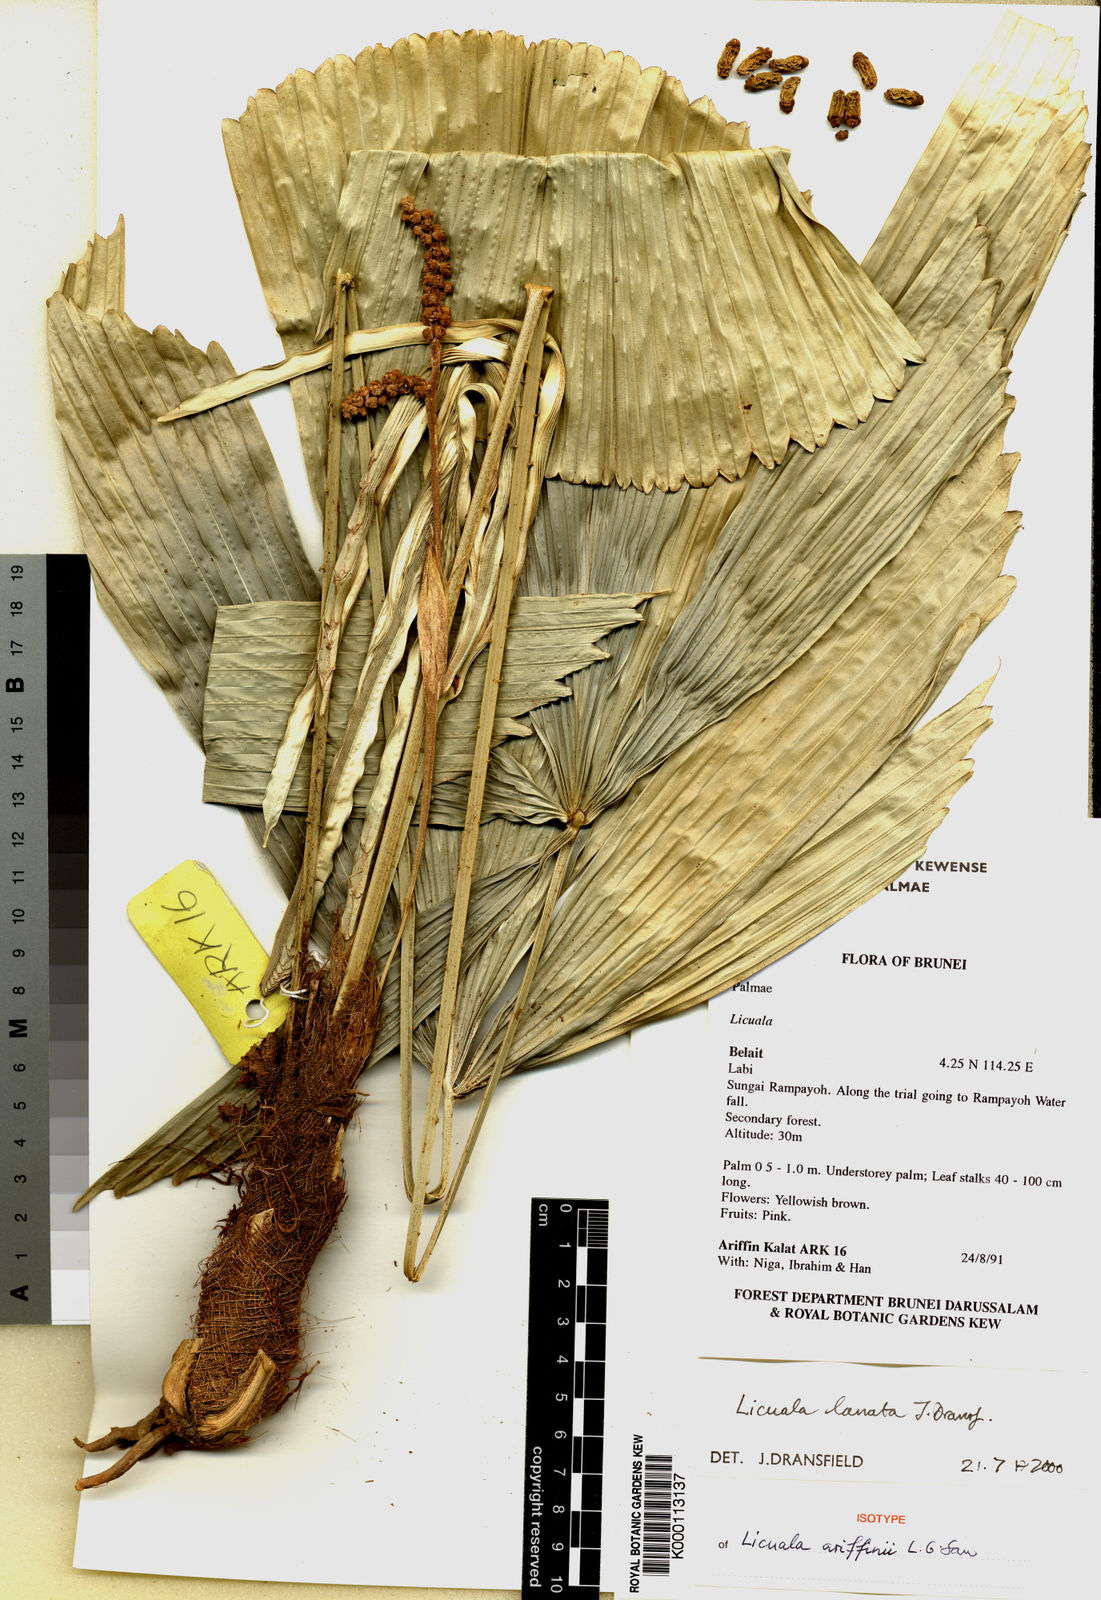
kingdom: Plantae
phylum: Tracheophyta
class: Liliopsida
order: Arecales
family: Arecaceae
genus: Licuala
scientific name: Licuala borneensis
